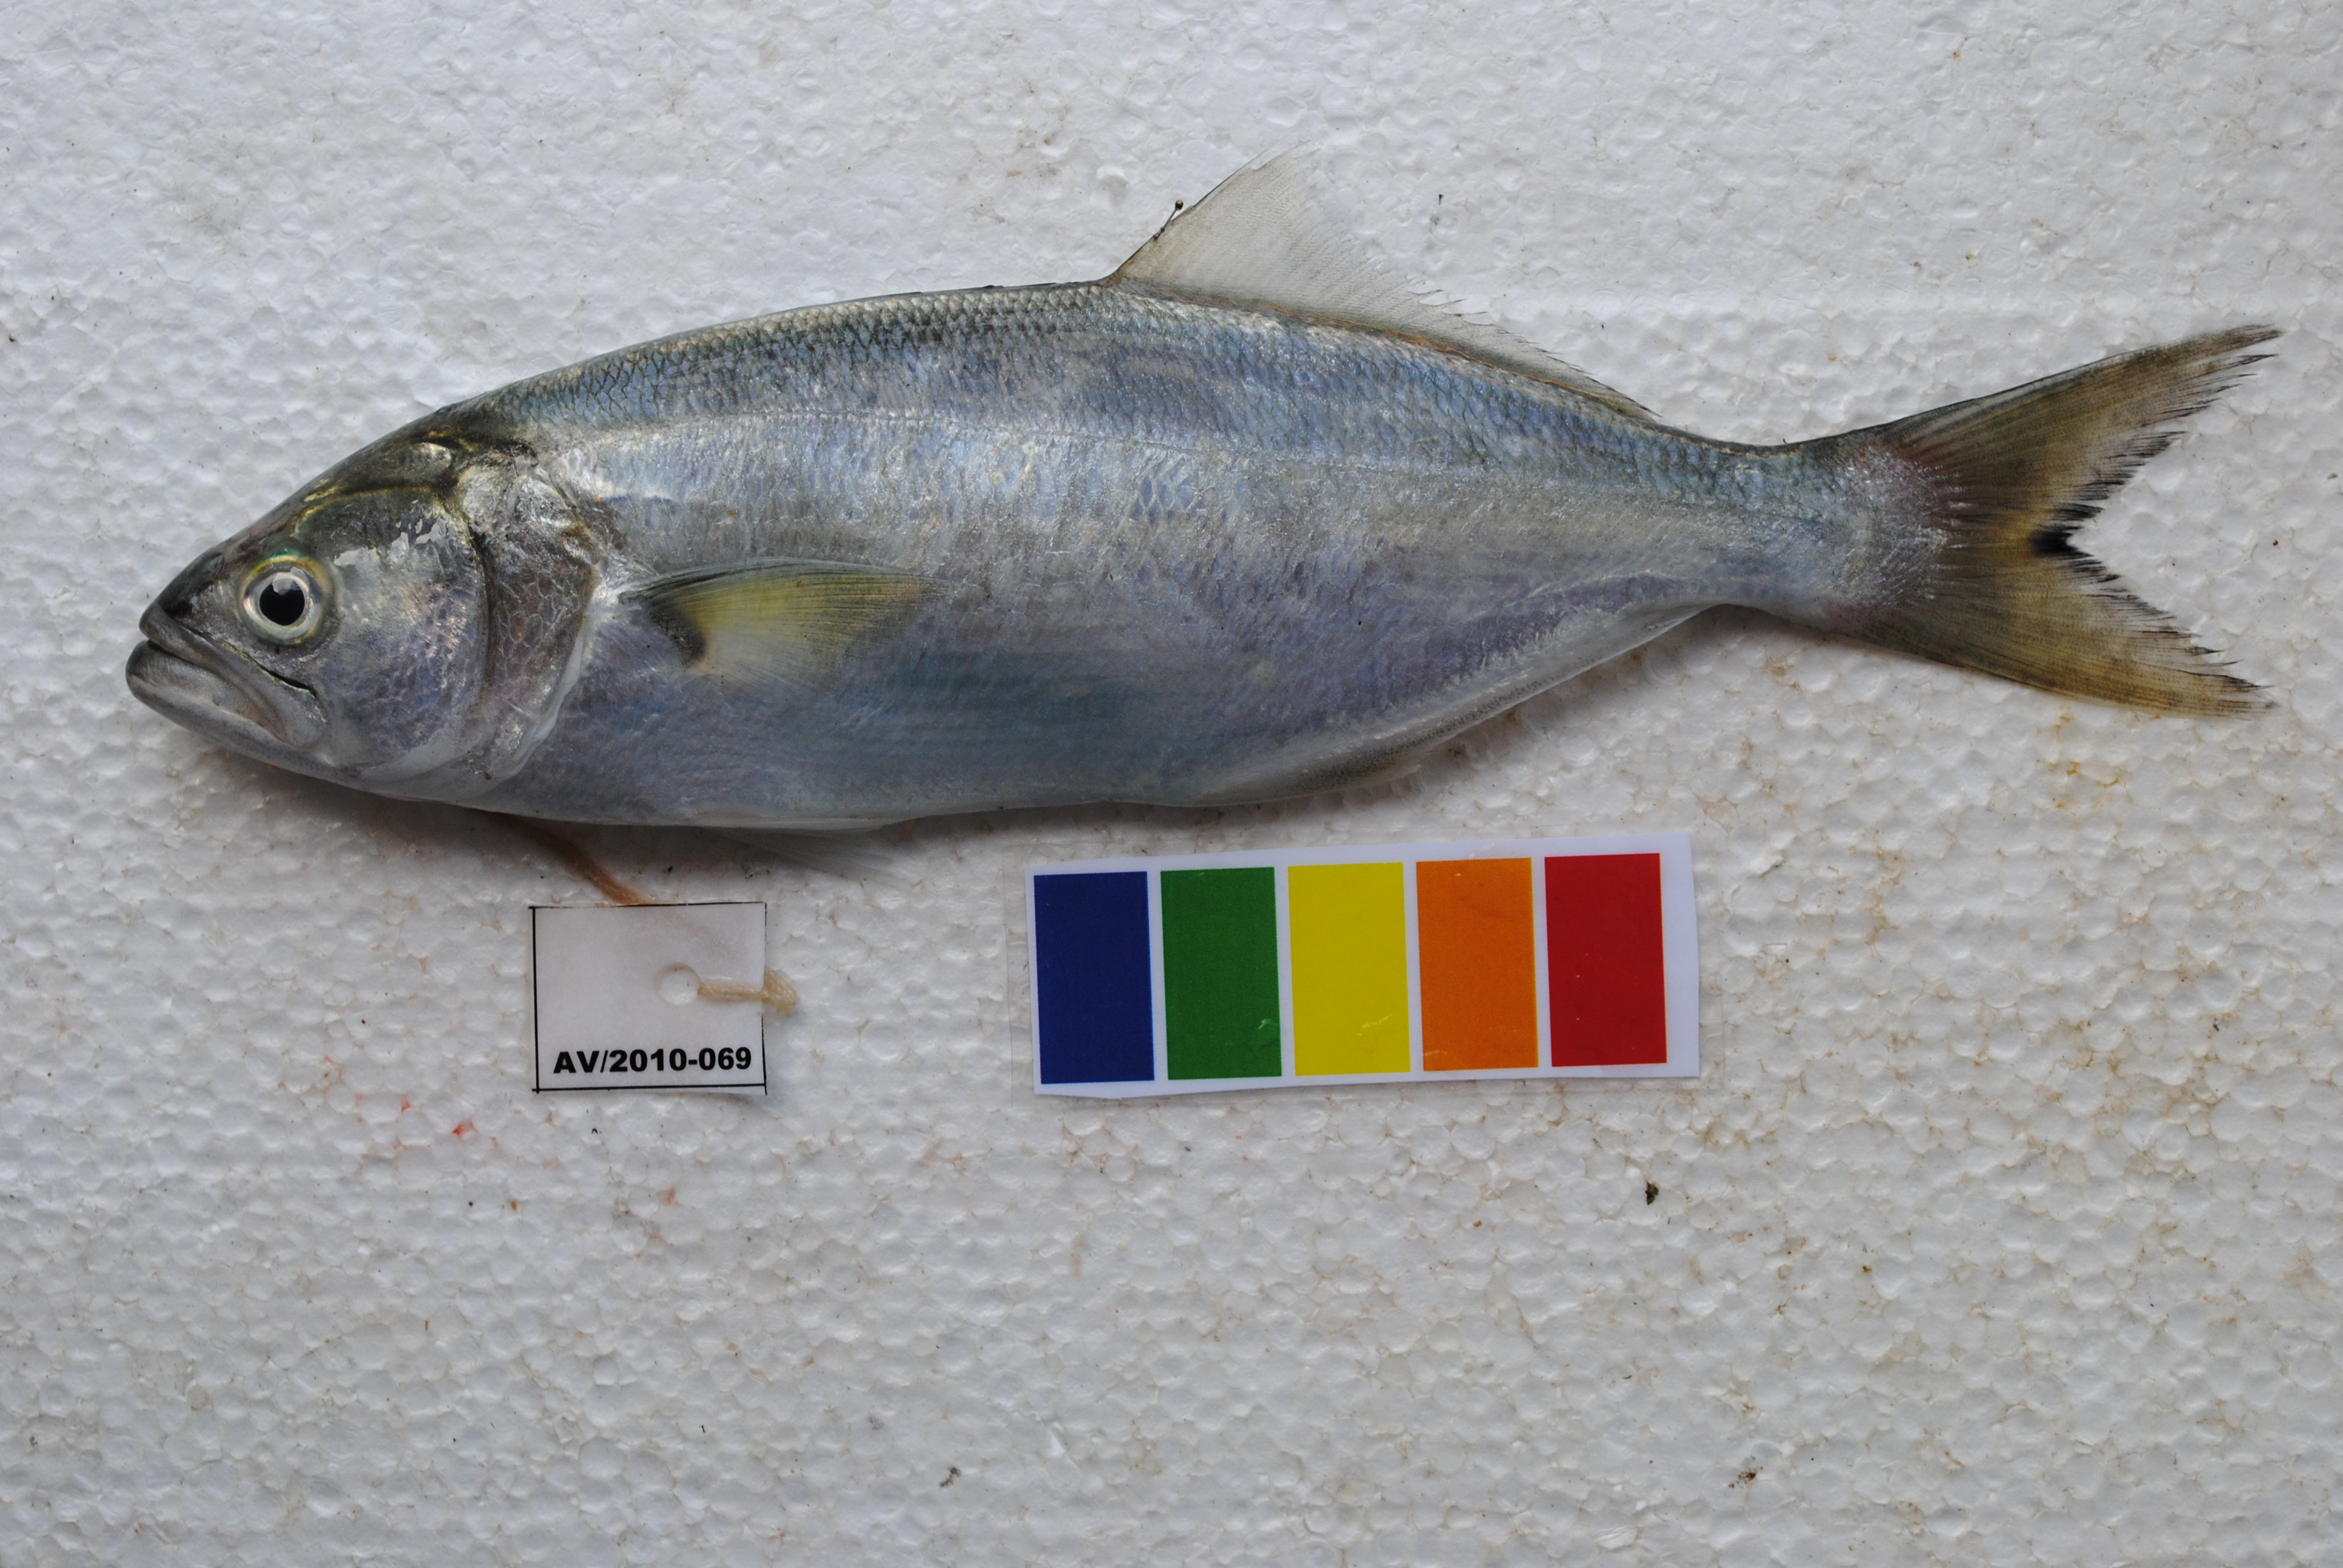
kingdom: Animalia
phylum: Chordata
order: Perciformes
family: Pomatomidae
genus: Pomatomus
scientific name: Pomatomus saltatrix
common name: Bluefish
